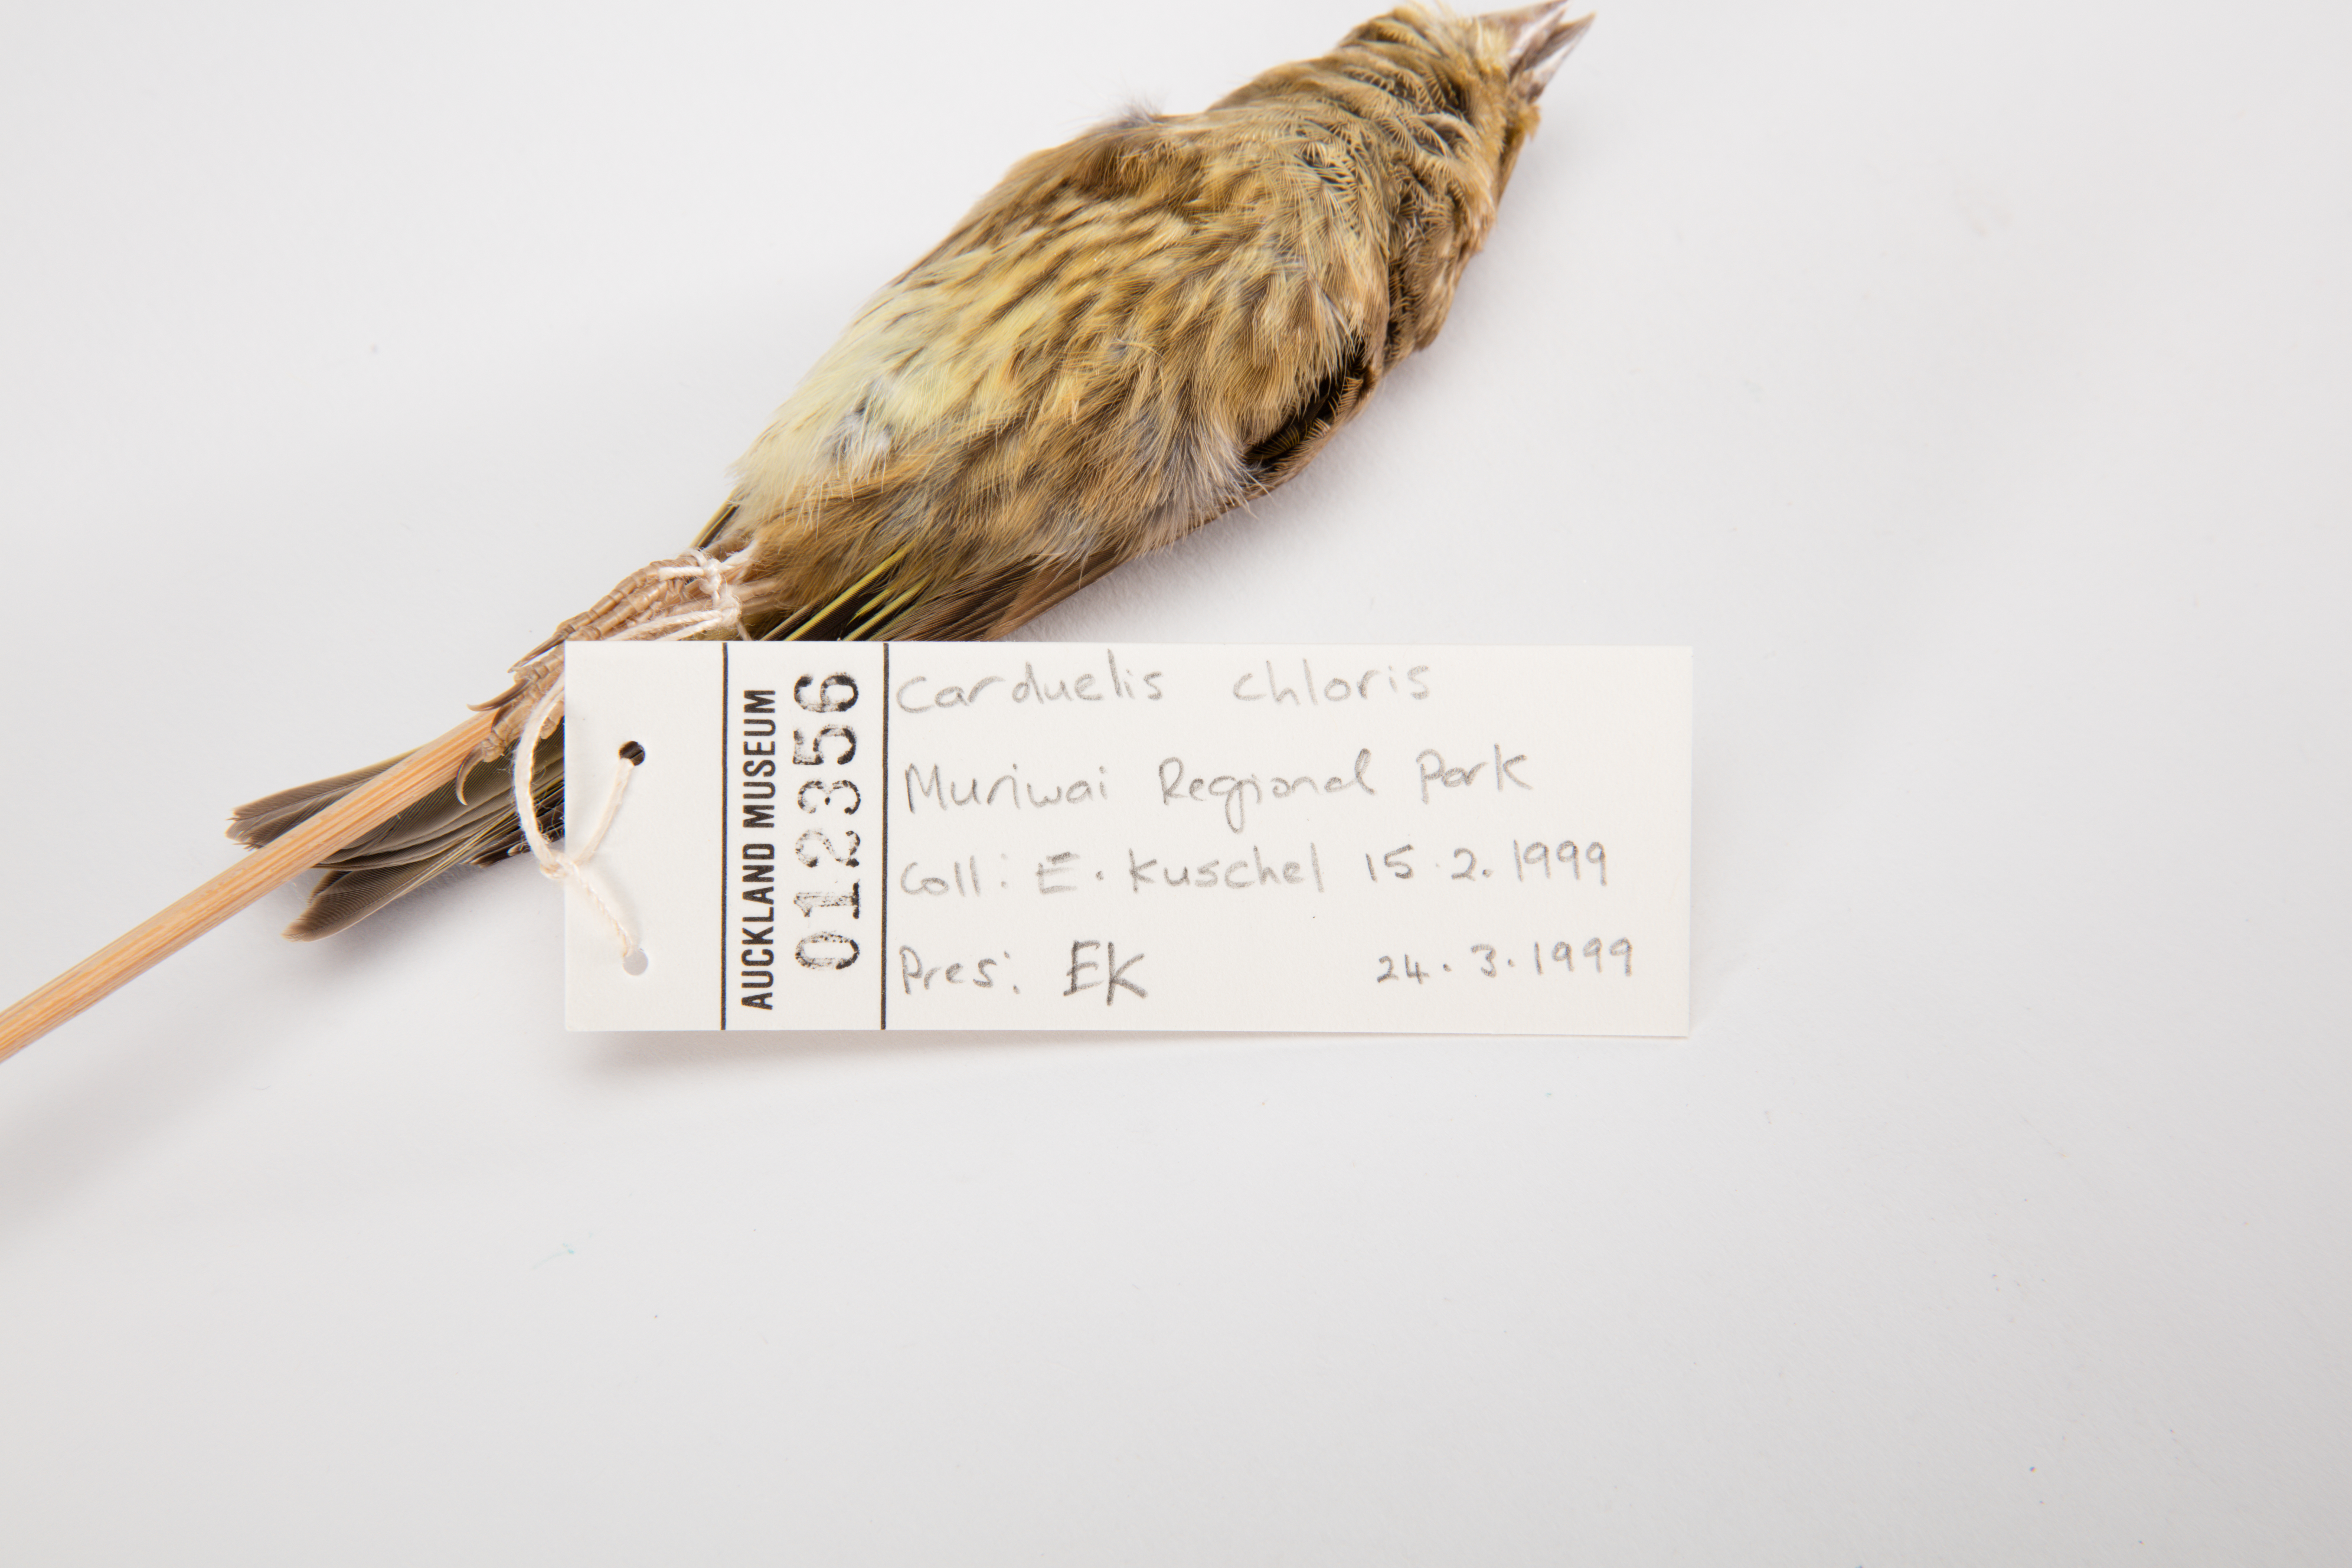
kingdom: Plantae
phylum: Tracheophyta
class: Liliopsida
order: Poales
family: Poaceae
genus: Chloris
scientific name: Chloris chloris
